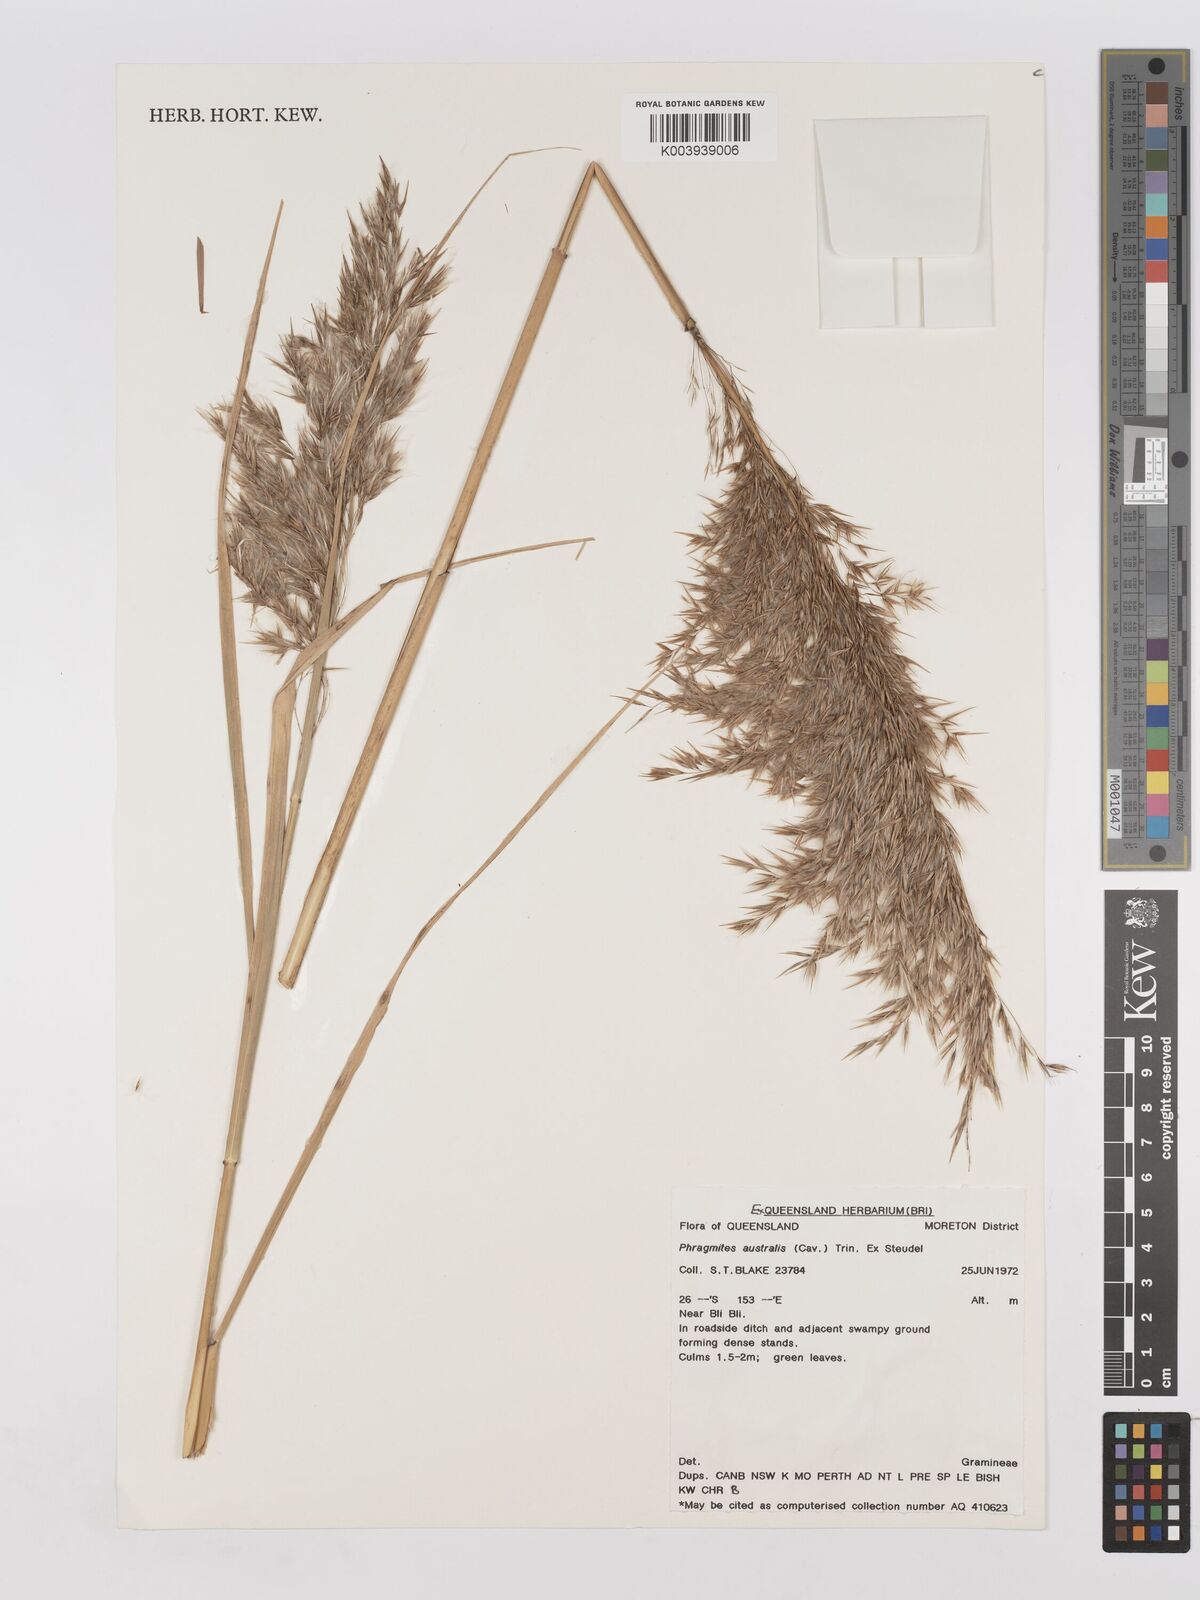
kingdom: Plantae
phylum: Tracheophyta
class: Liliopsida
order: Poales
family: Poaceae
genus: Phragmites
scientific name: Phragmites australis
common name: Common reed
